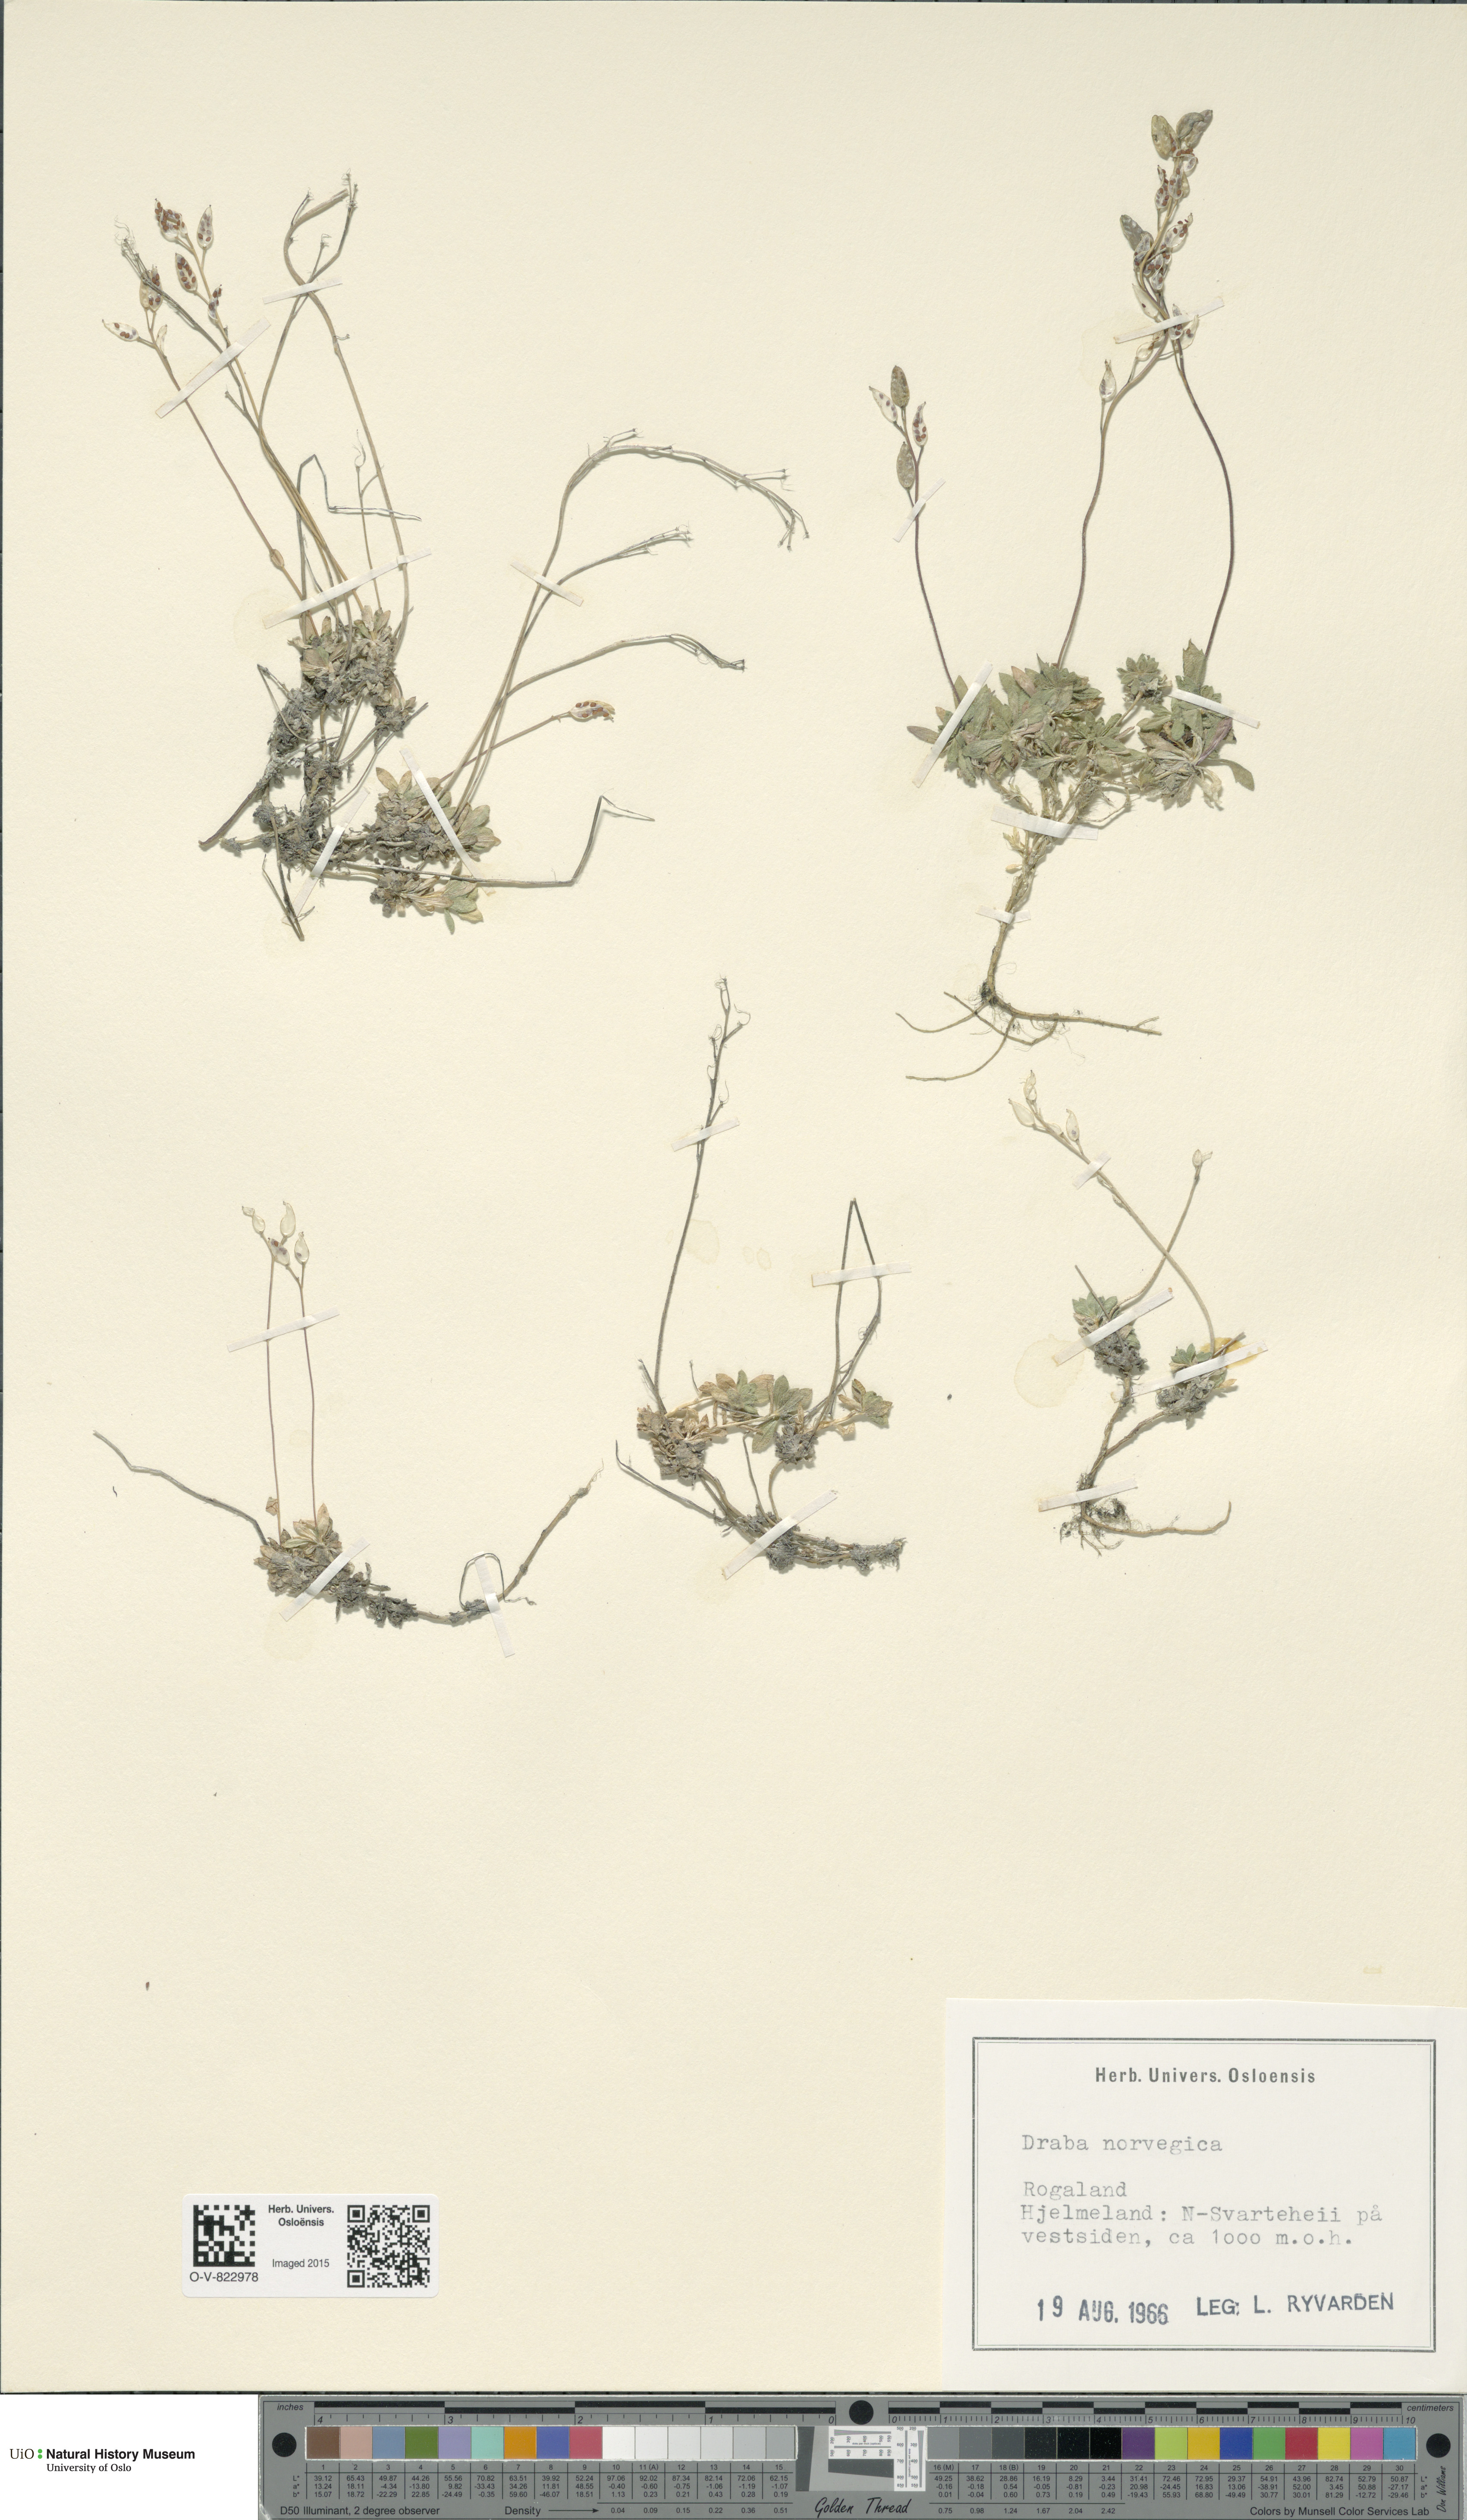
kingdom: Plantae
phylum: Tracheophyta
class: Magnoliopsida
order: Brassicales
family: Brassicaceae
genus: Draba
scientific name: Draba norvegica
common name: Rock whitlowgrass
